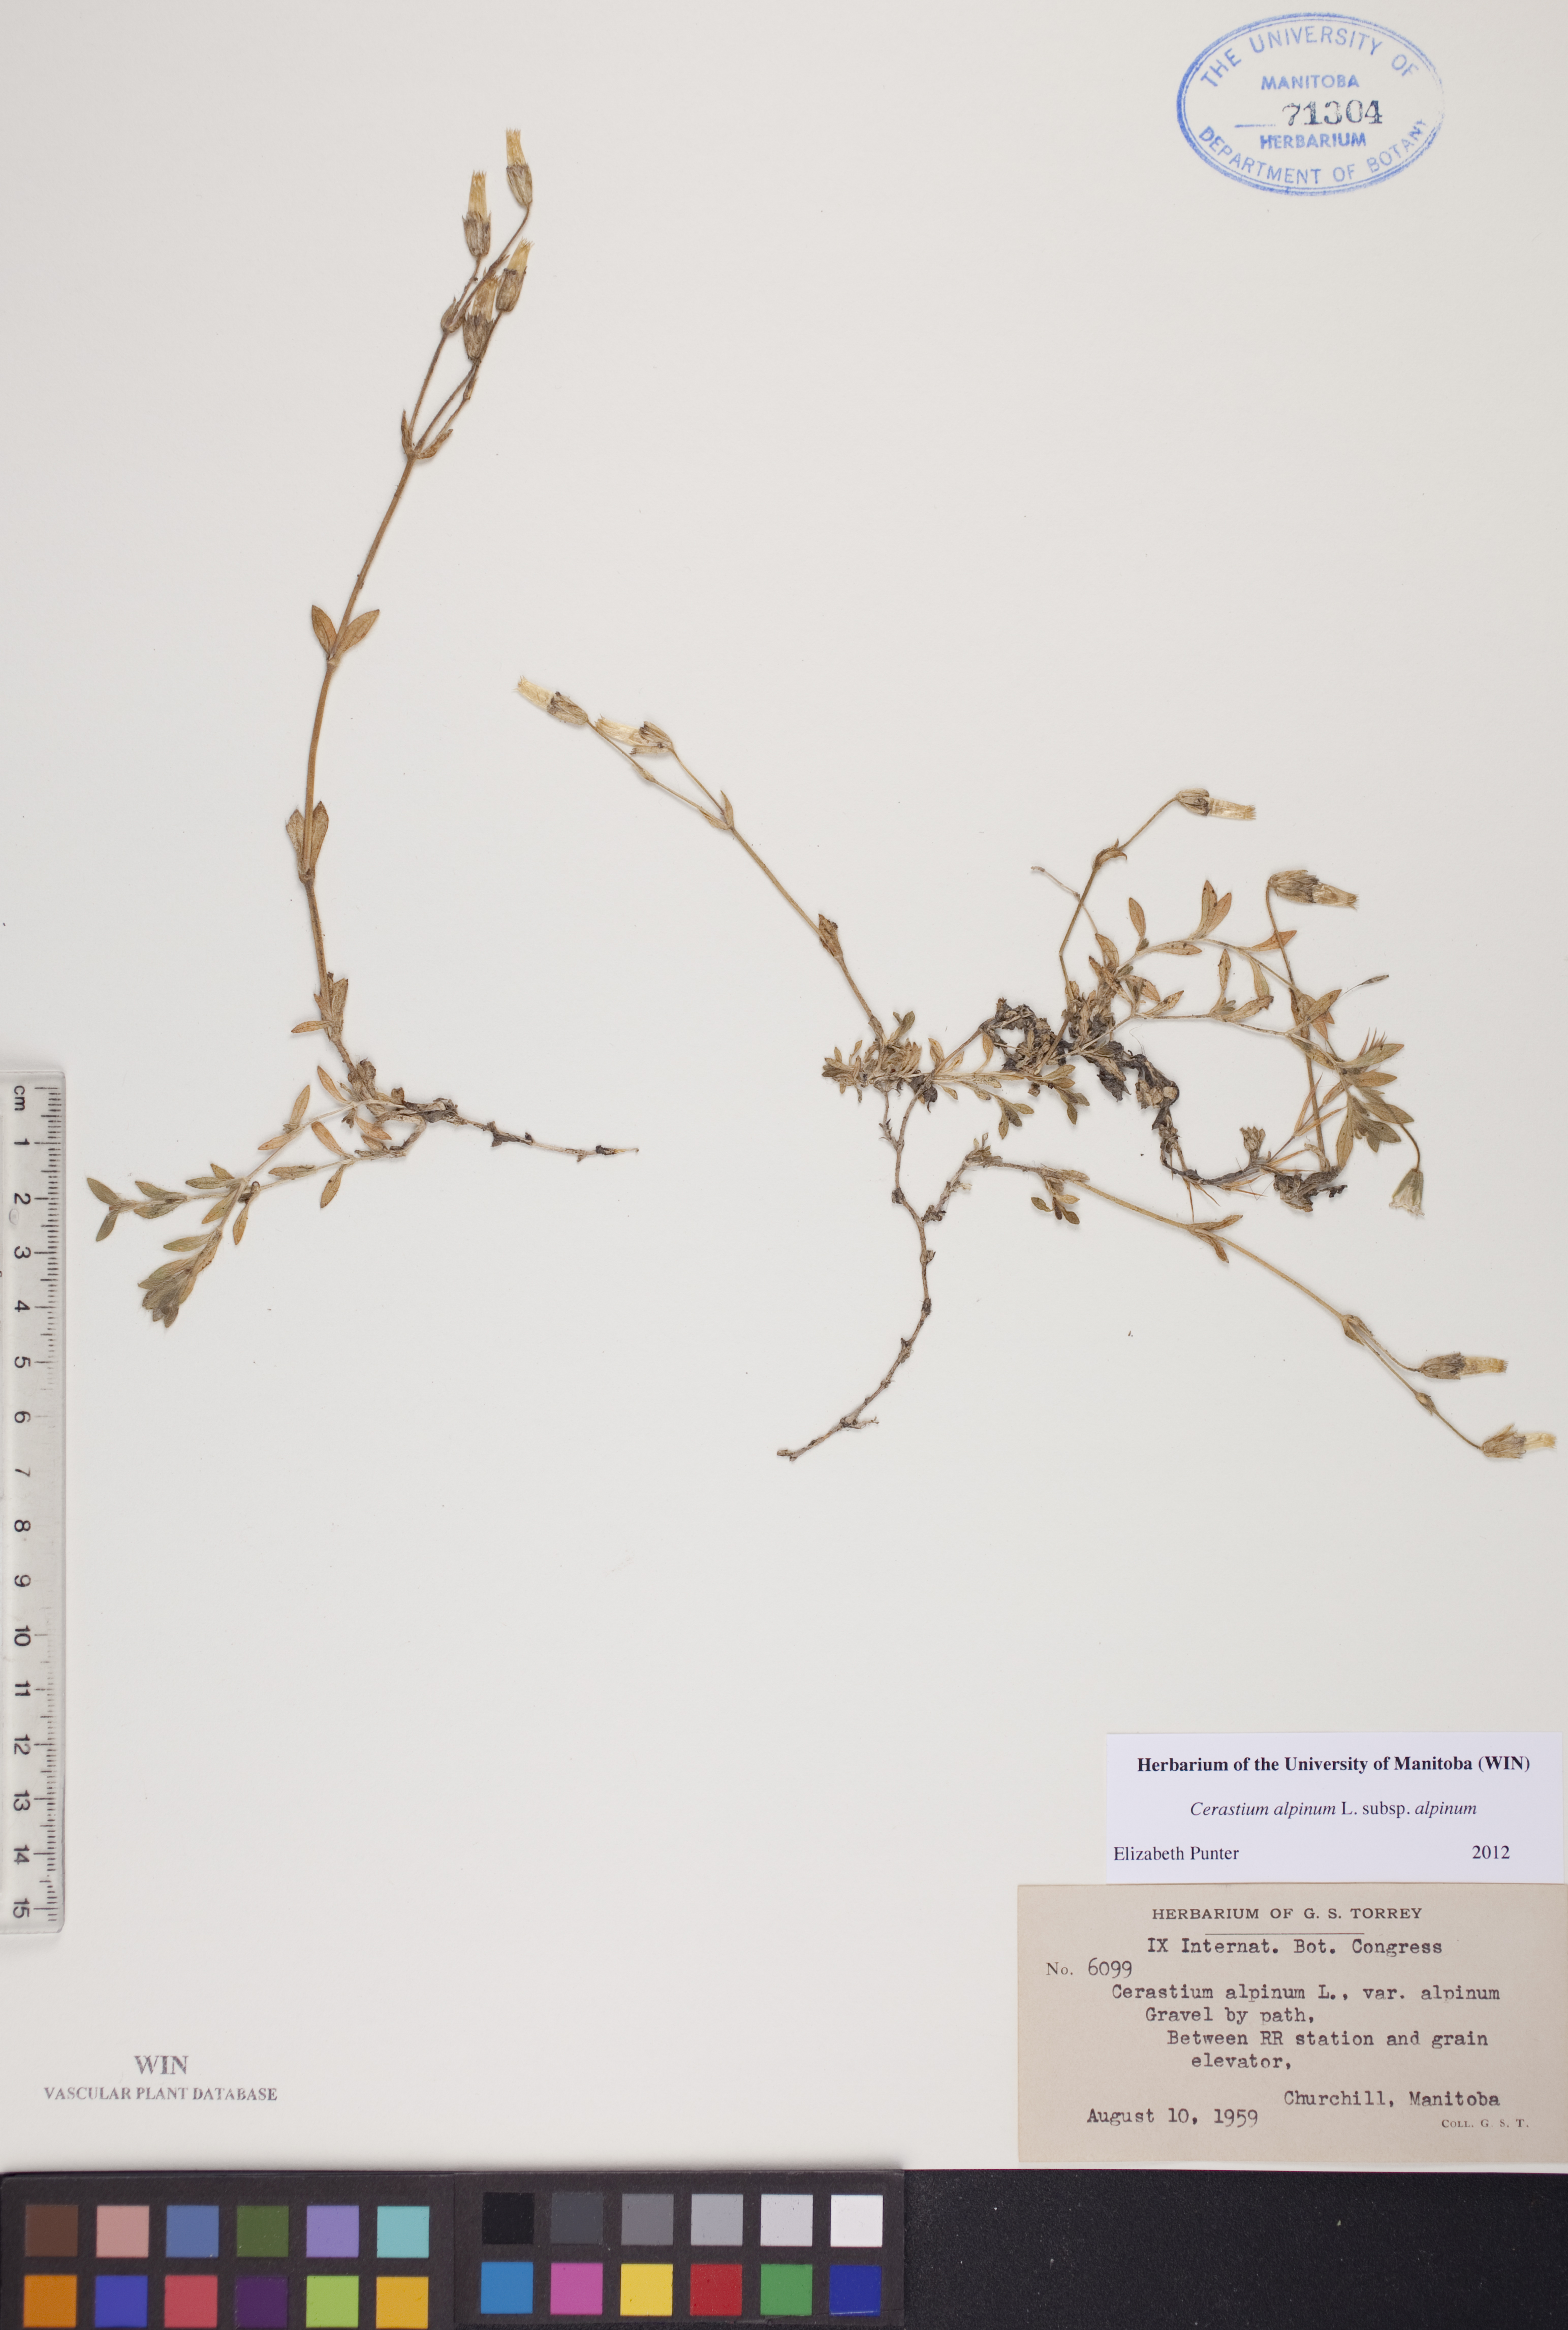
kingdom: Plantae
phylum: Tracheophyta
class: Magnoliopsida
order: Caryophyllales
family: Caryophyllaceae
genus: Cerastium
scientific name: Cerastium alpinum
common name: Alpine mouse-ear
